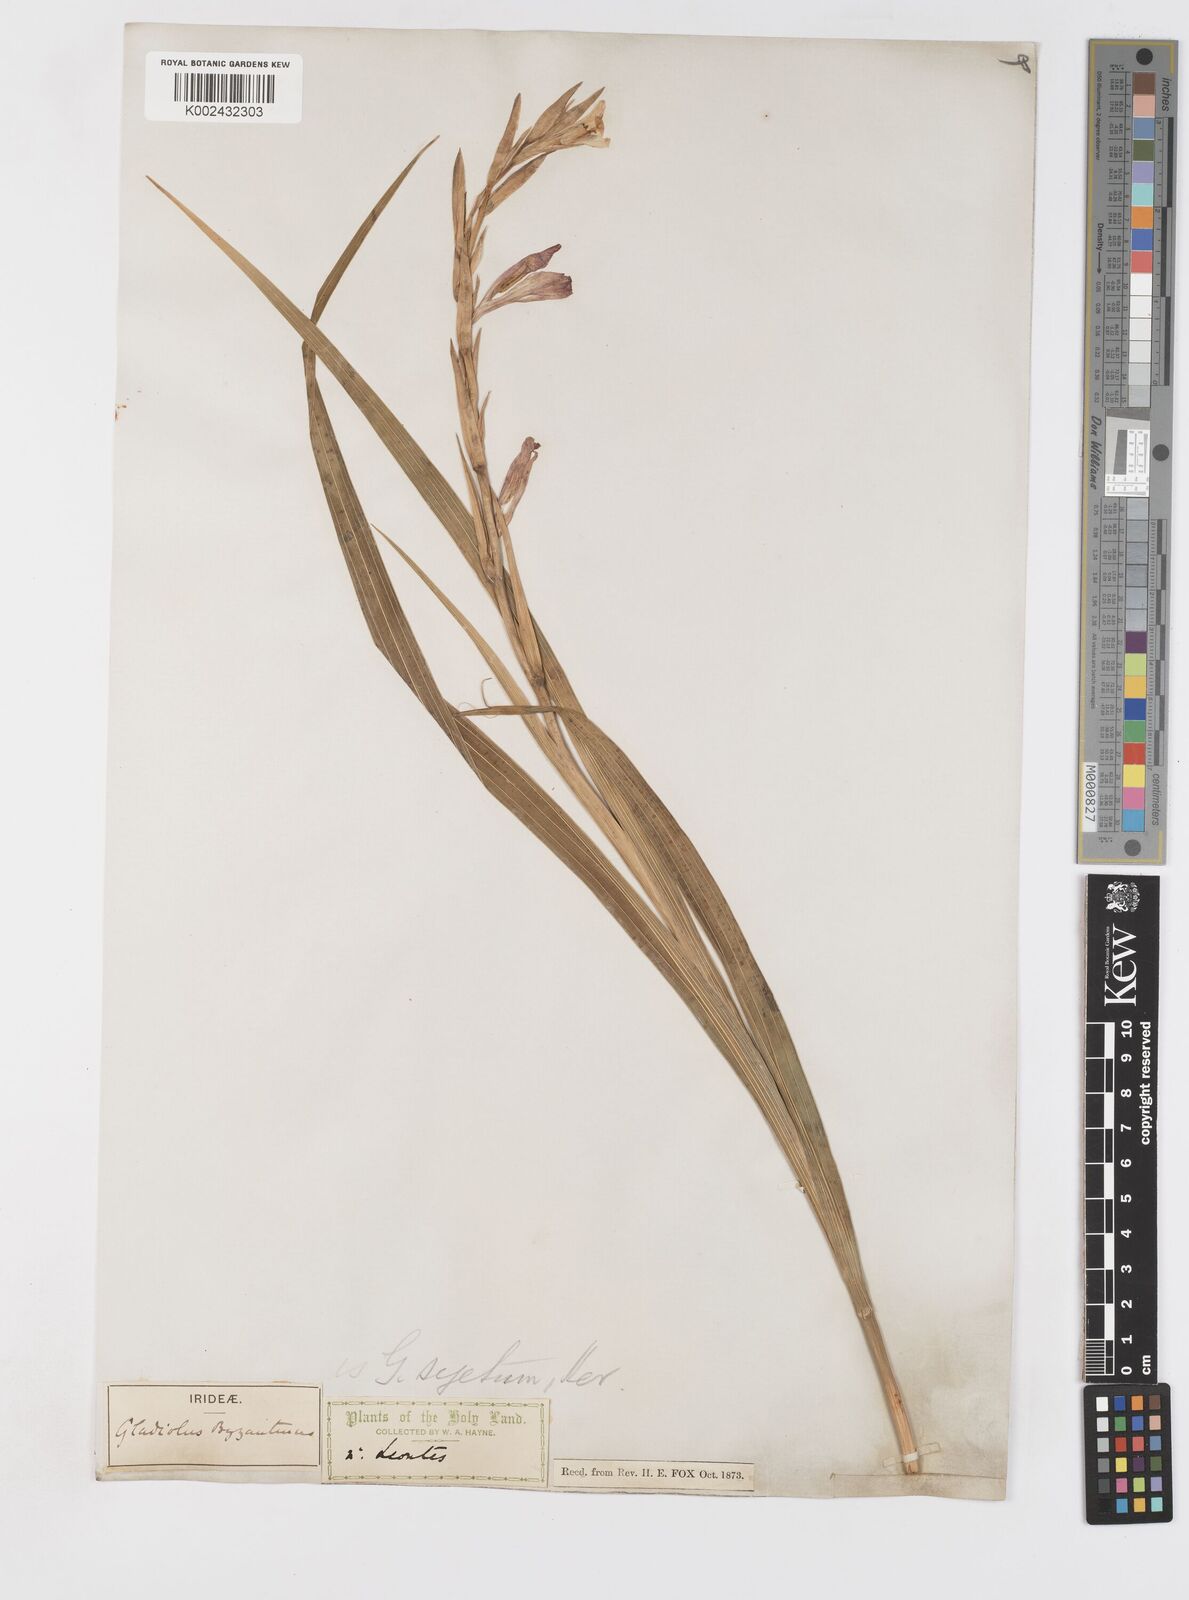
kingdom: Plantae
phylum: Tracheophyta
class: Liliopsida
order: Asparagales
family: Iridaceae
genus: Gladiolus
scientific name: Gladiolus italicus
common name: Field gladiolus
